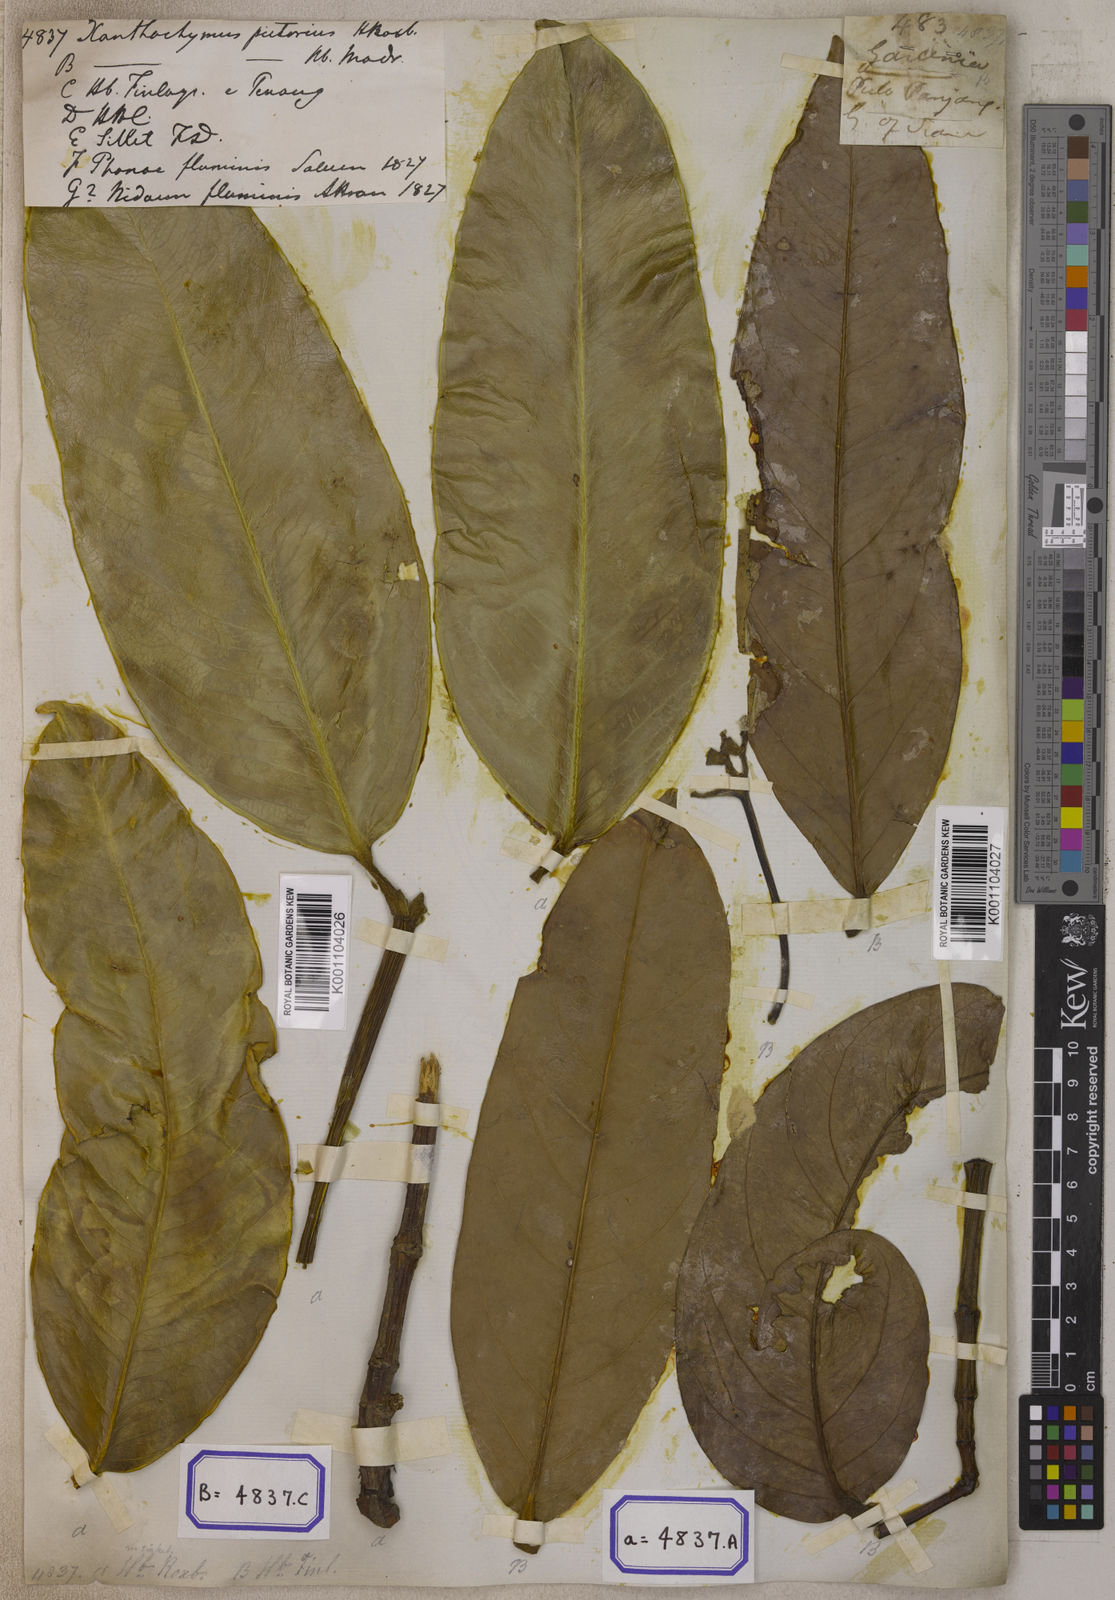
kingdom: Plantae
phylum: Tracheophyta
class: Magnoliopsida
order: Malpighiales
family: Clusiaceae
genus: Garcinia
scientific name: Garcinia xanthochymus
